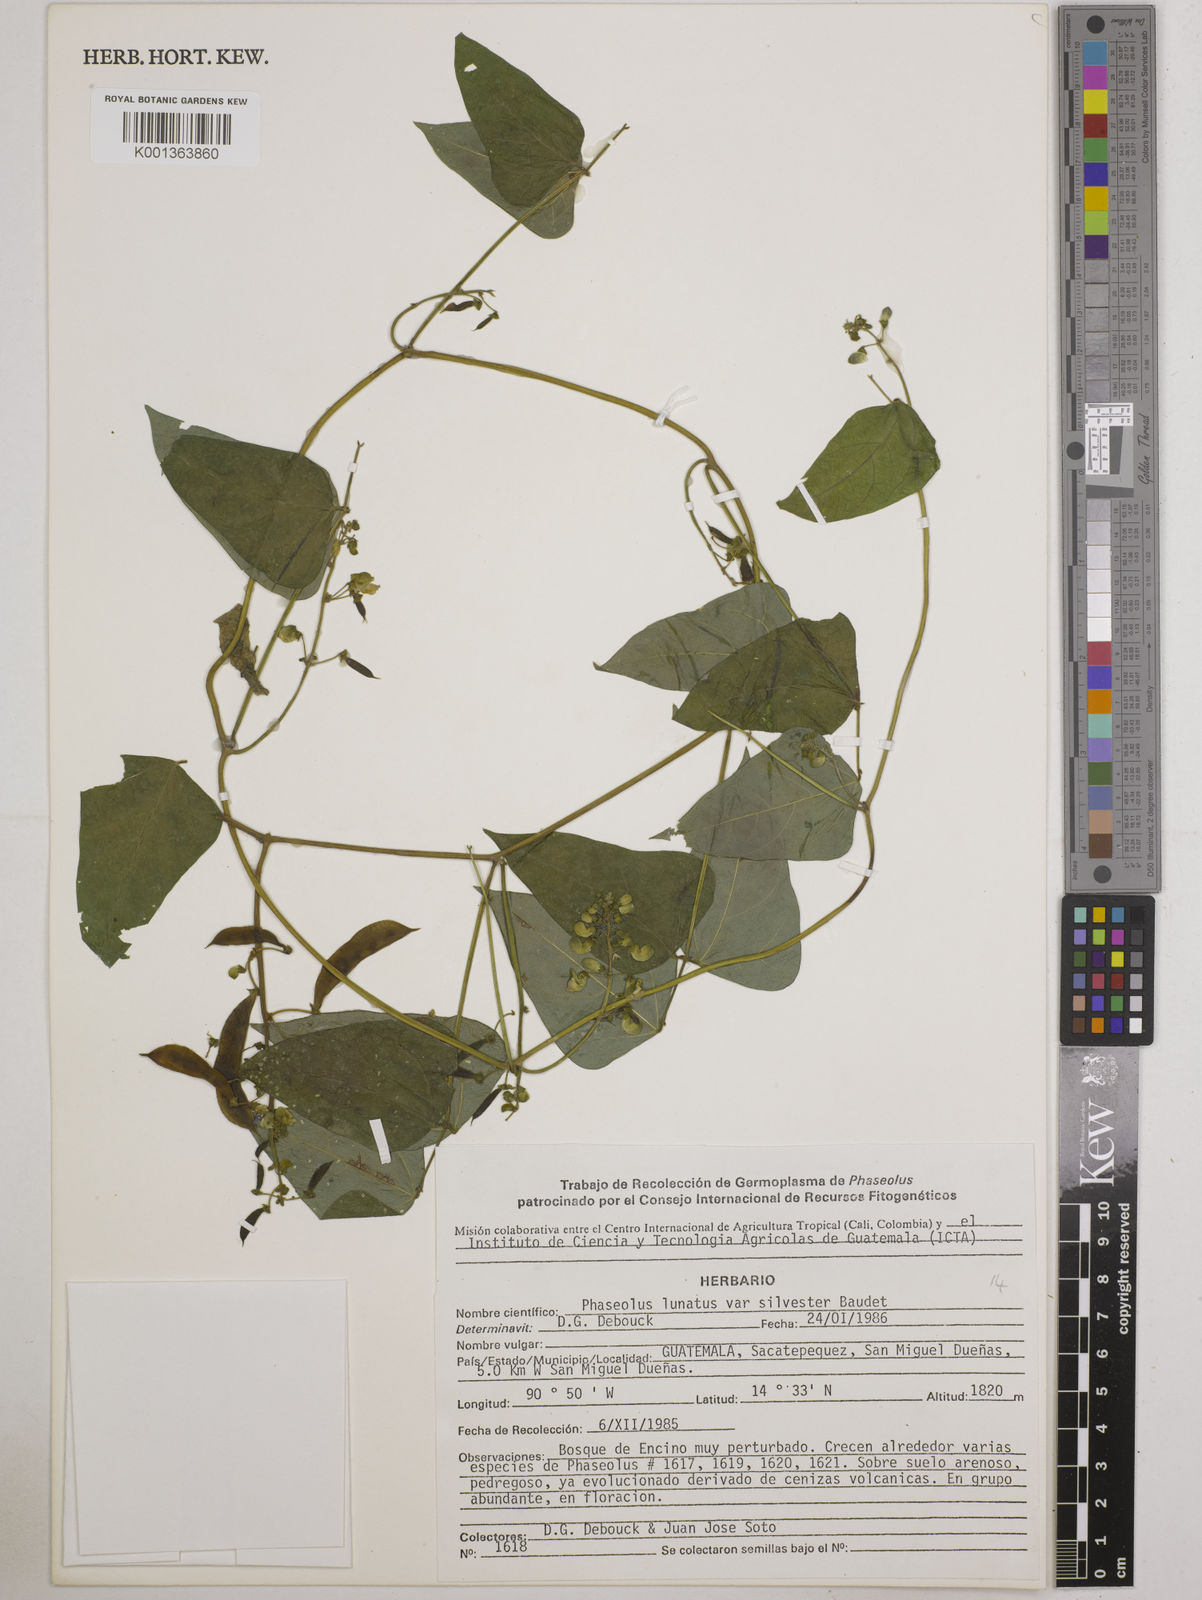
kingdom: Plantae
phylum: Tracheophyta
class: Magnoliopsida
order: Fabales
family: Fabaceae
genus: Phaseolus
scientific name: Phaseolus lunatus
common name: Sieva bean
